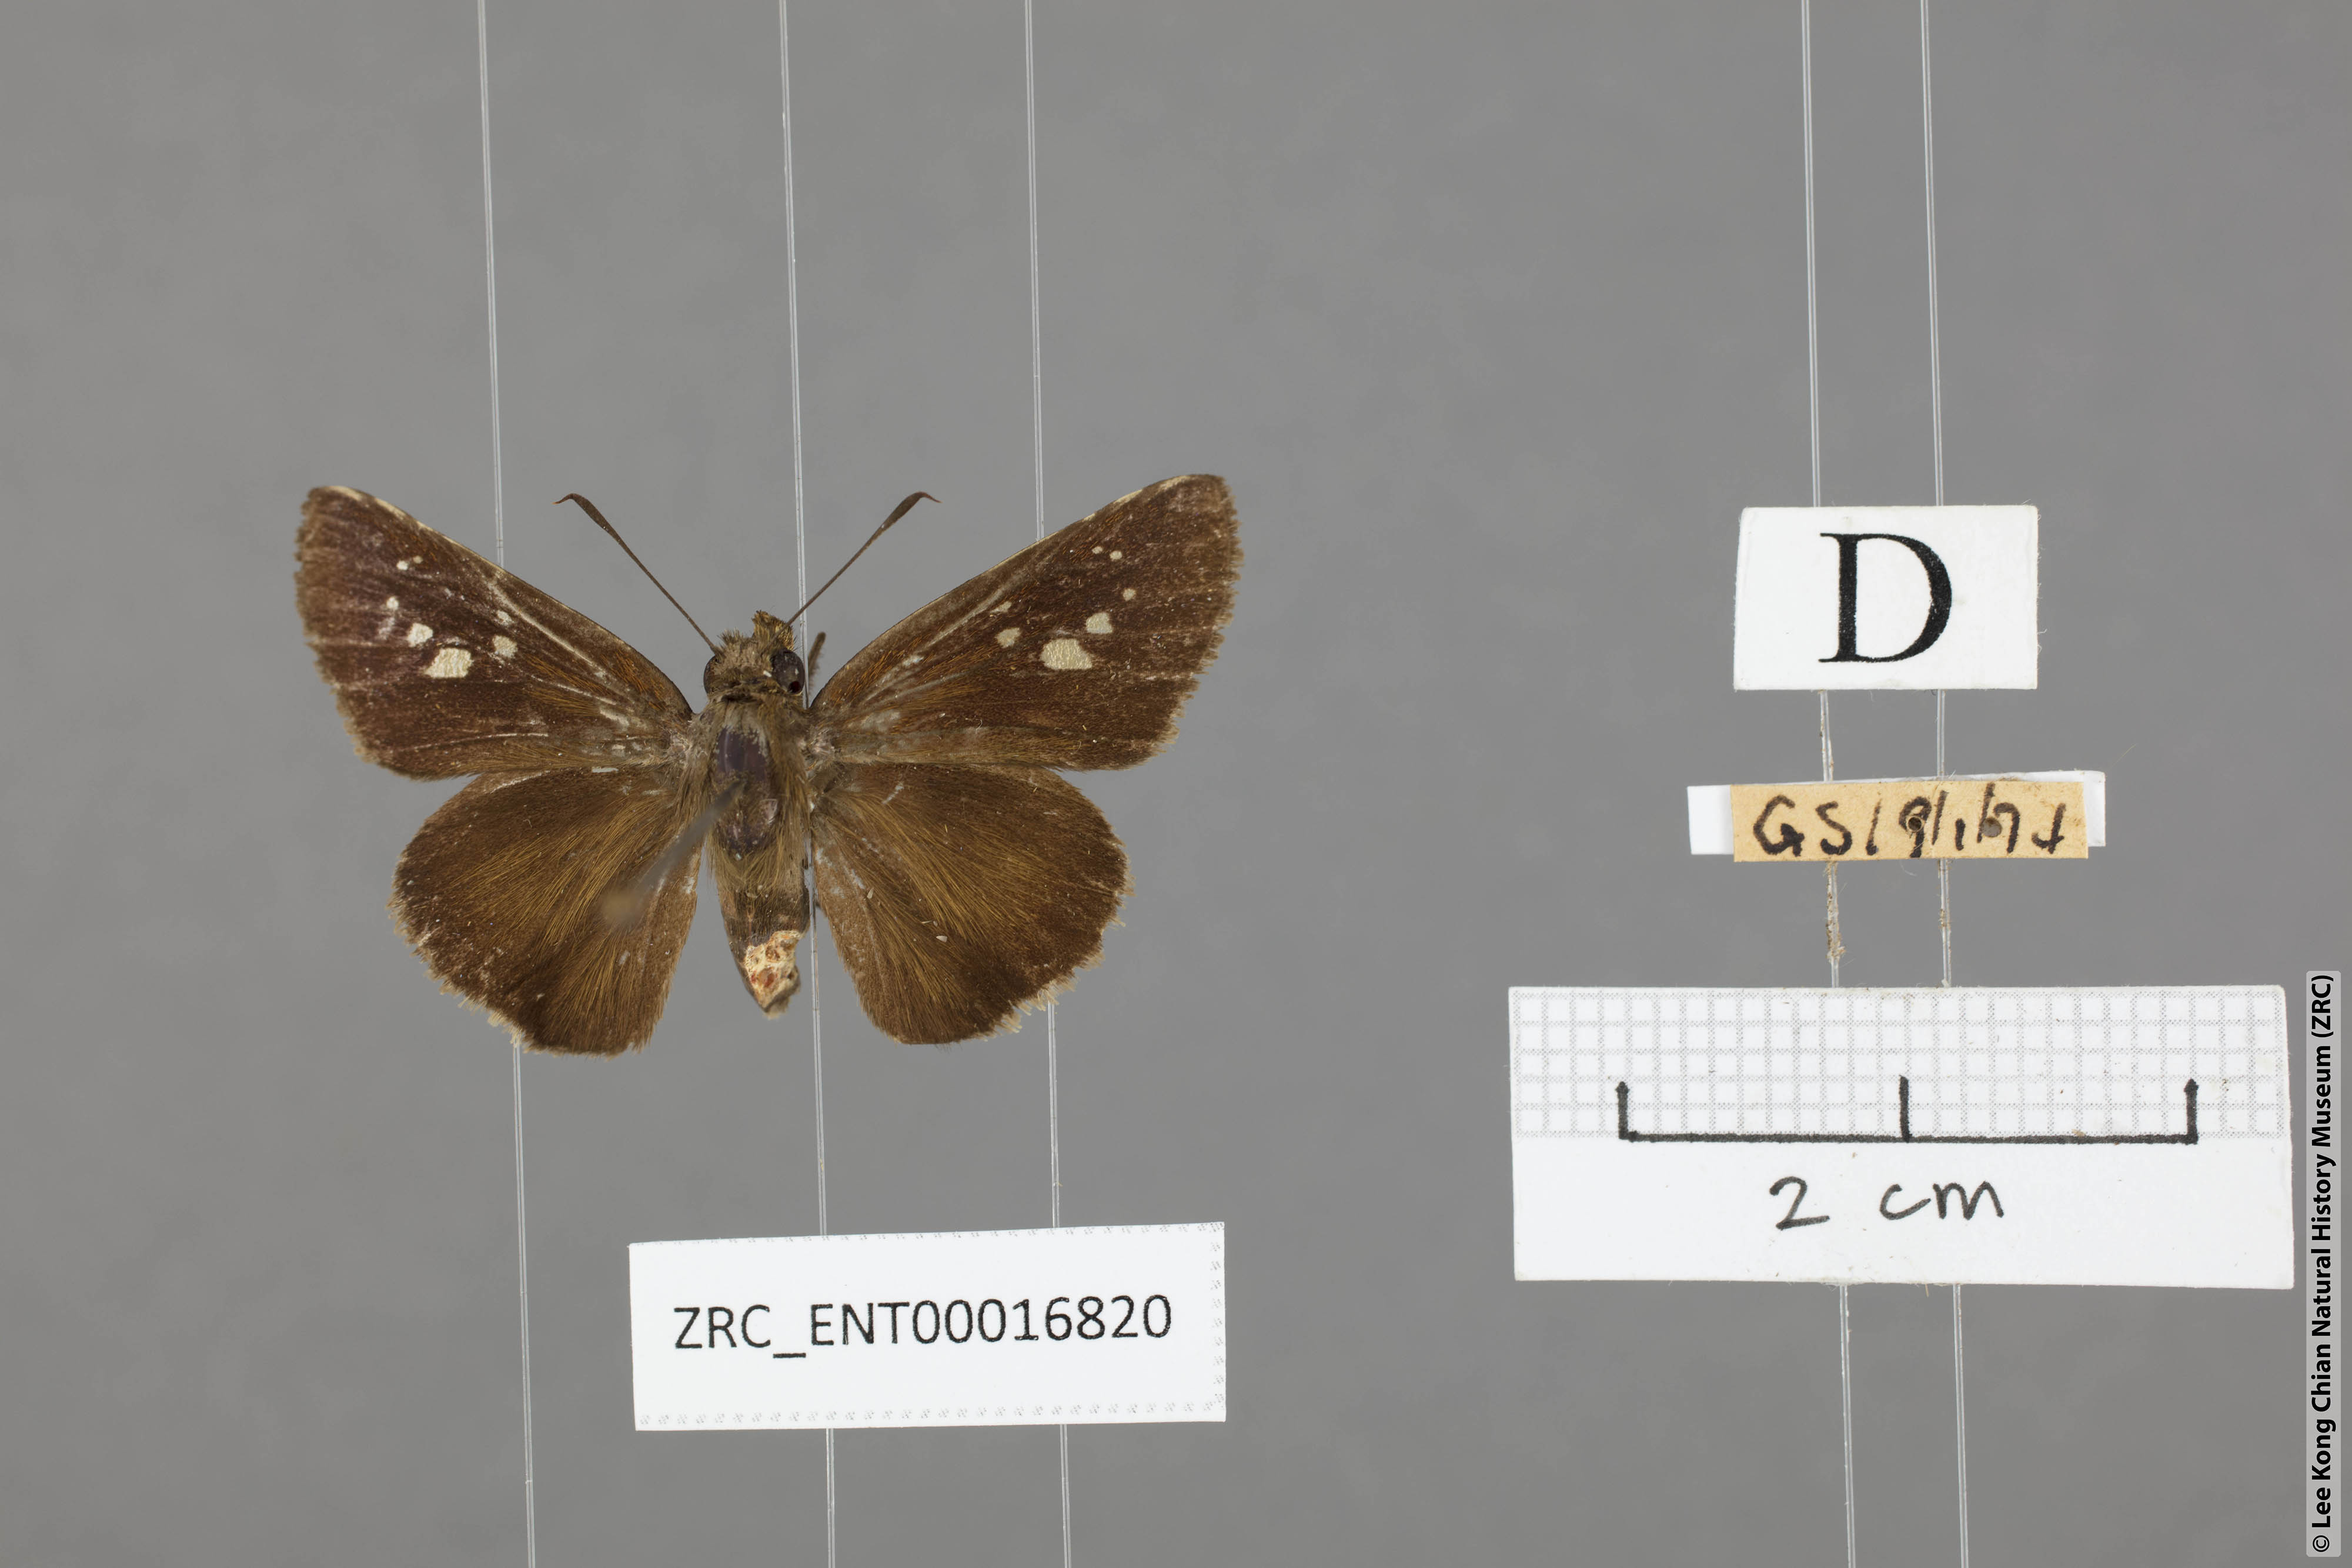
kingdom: Animalia
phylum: Arthropoda
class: Insecta
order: Lepidoptera
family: Hesperiidae
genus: Caltoris
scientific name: Caltoris cormasa
